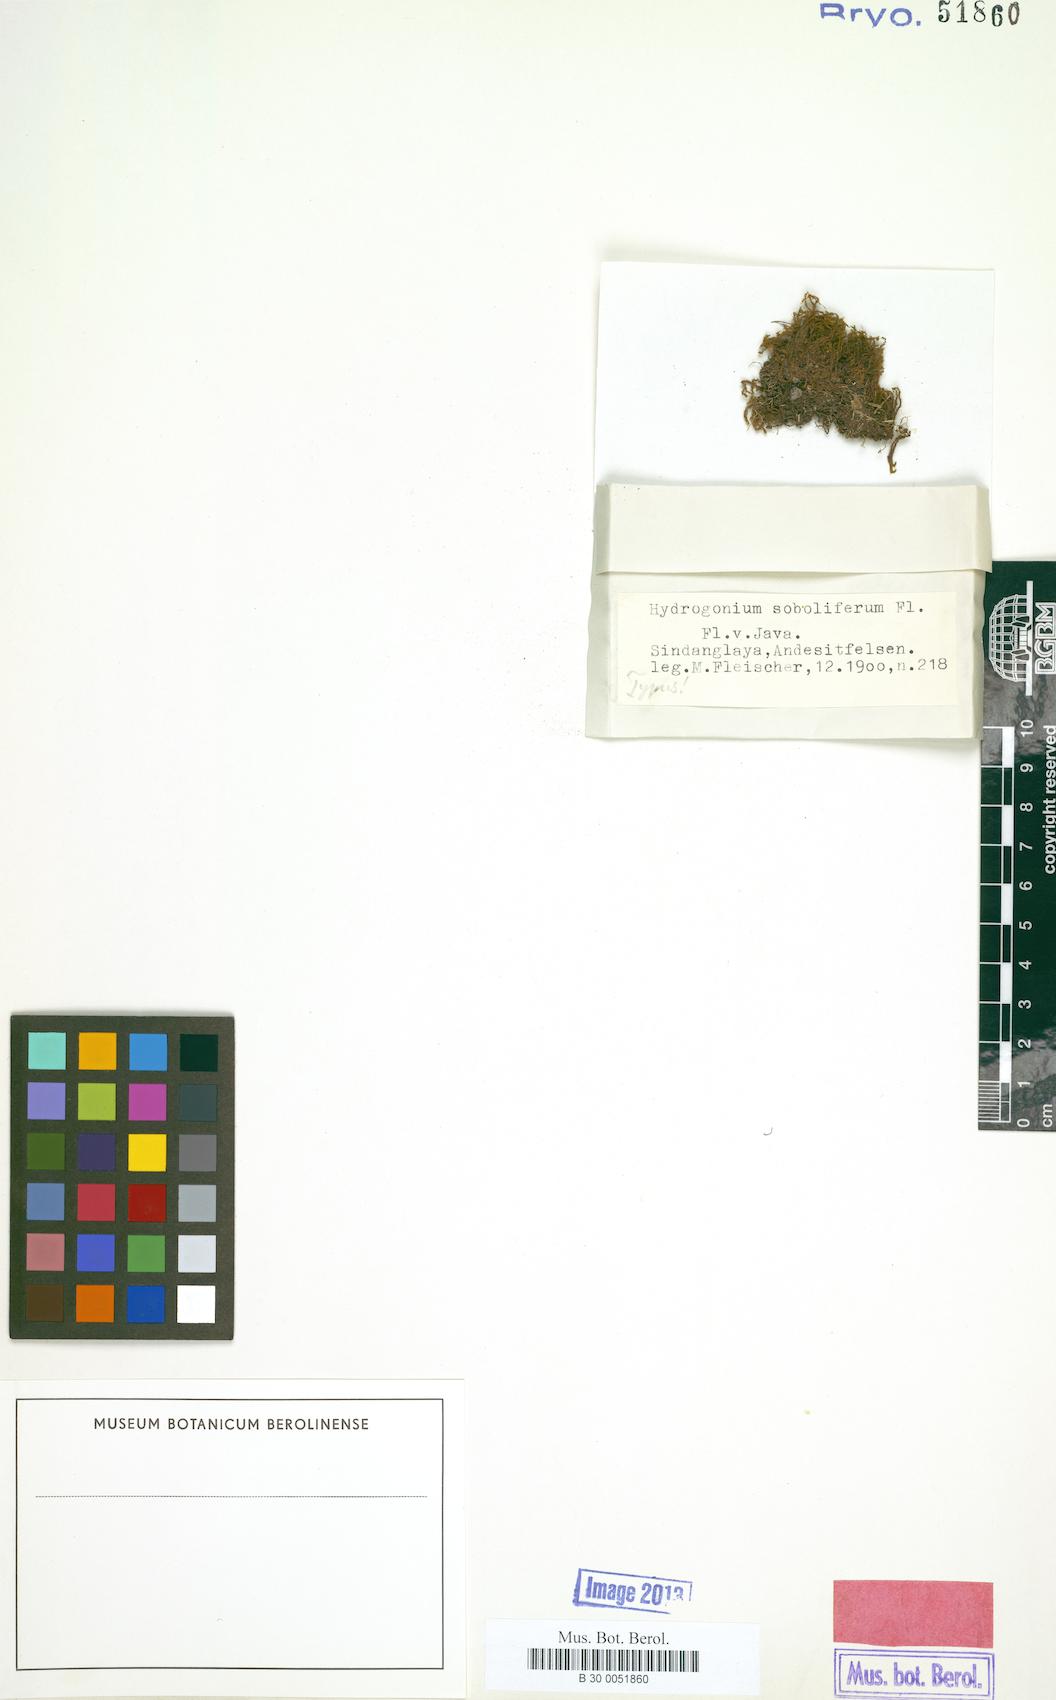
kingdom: Plantae
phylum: Bryophyta
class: Bryopsida
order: Pottiales
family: Pottiaceae
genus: Hydrogonium
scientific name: Hydrogonium arcuatum
